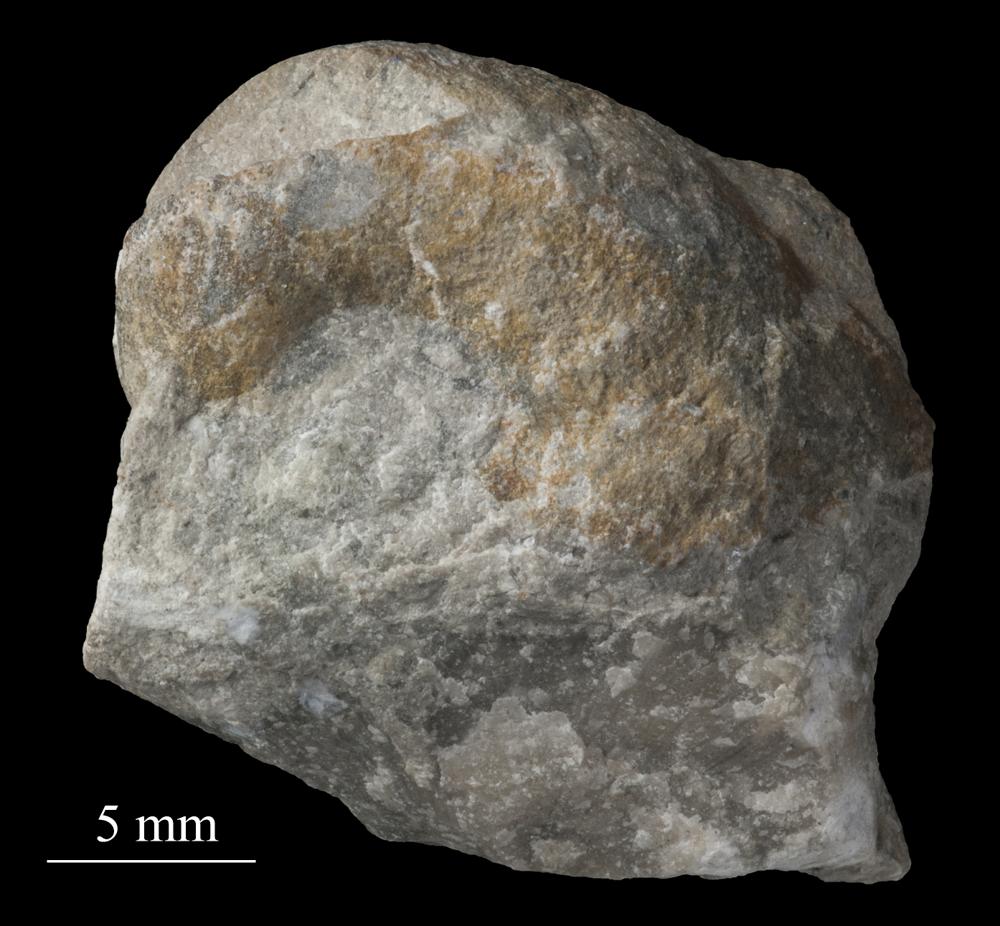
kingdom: Animalia
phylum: Mollusca
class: Gastropoda
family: Bellerophontidae
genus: Bellerophon
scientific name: Bellerophon
